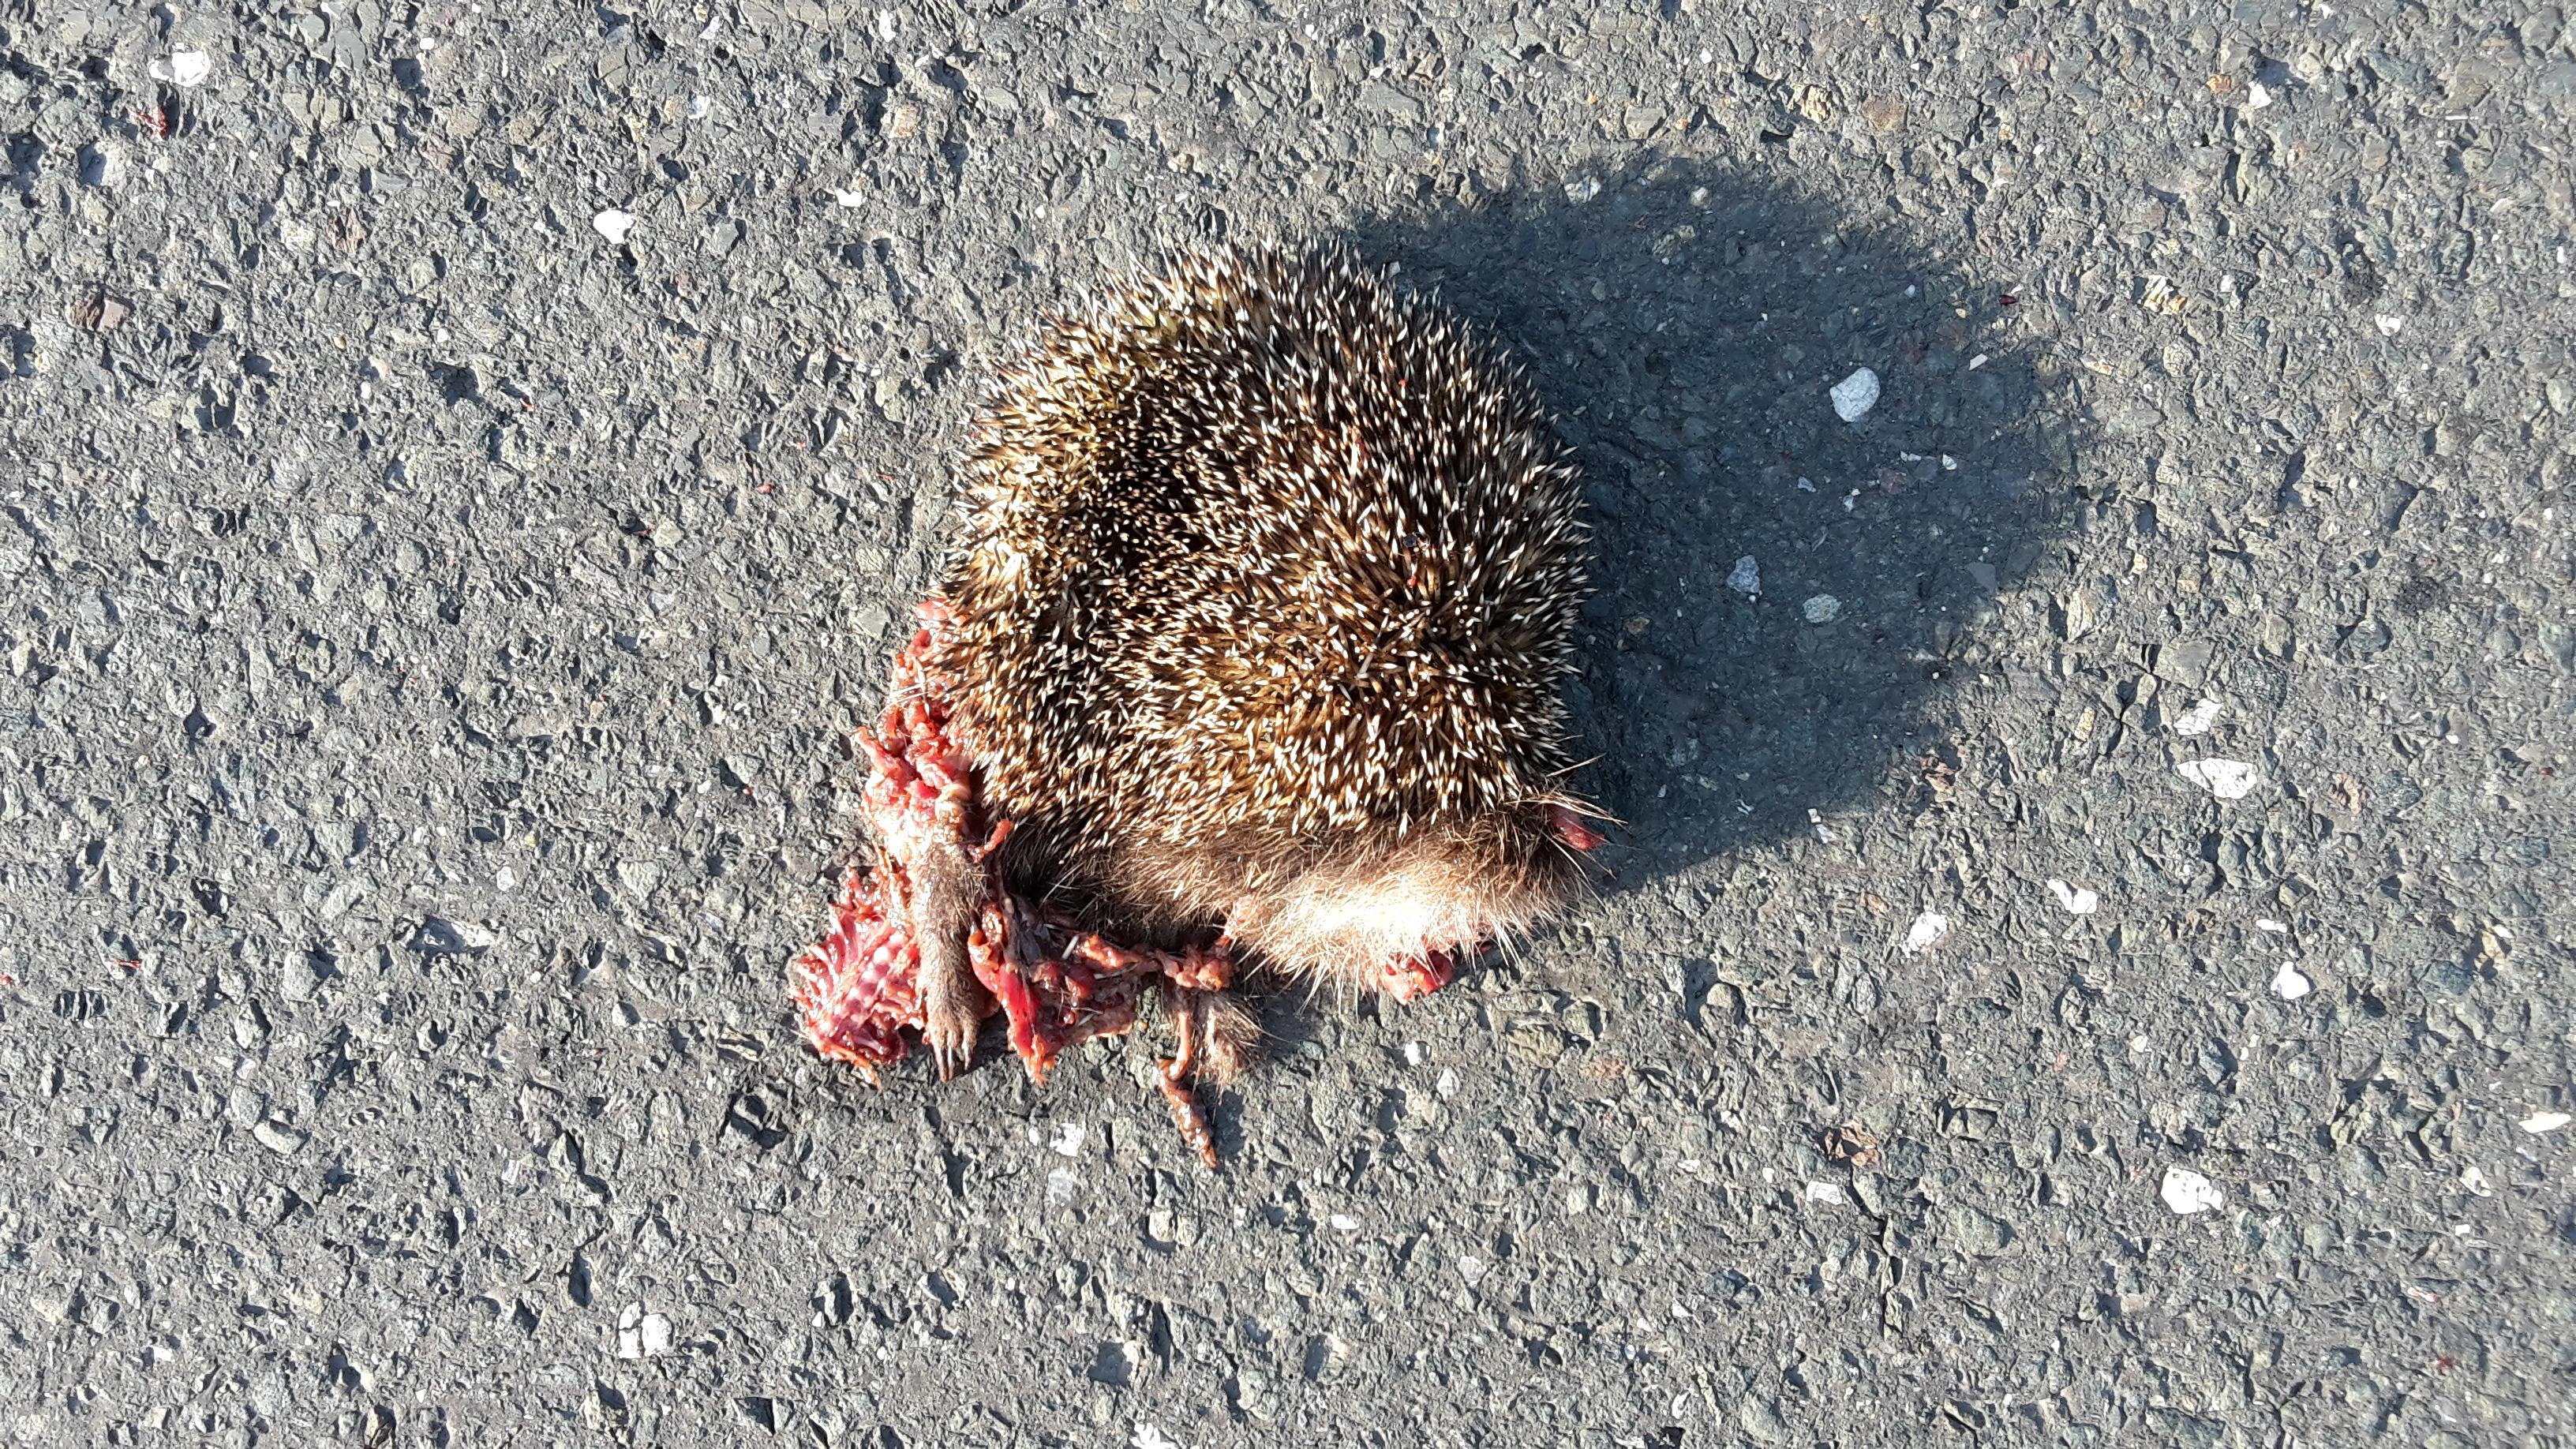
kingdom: Animalia
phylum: Chordata
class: Mammalia
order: Erinaceomorpha
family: Erinaceidae
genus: Erinaceus
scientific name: Erinaceus
